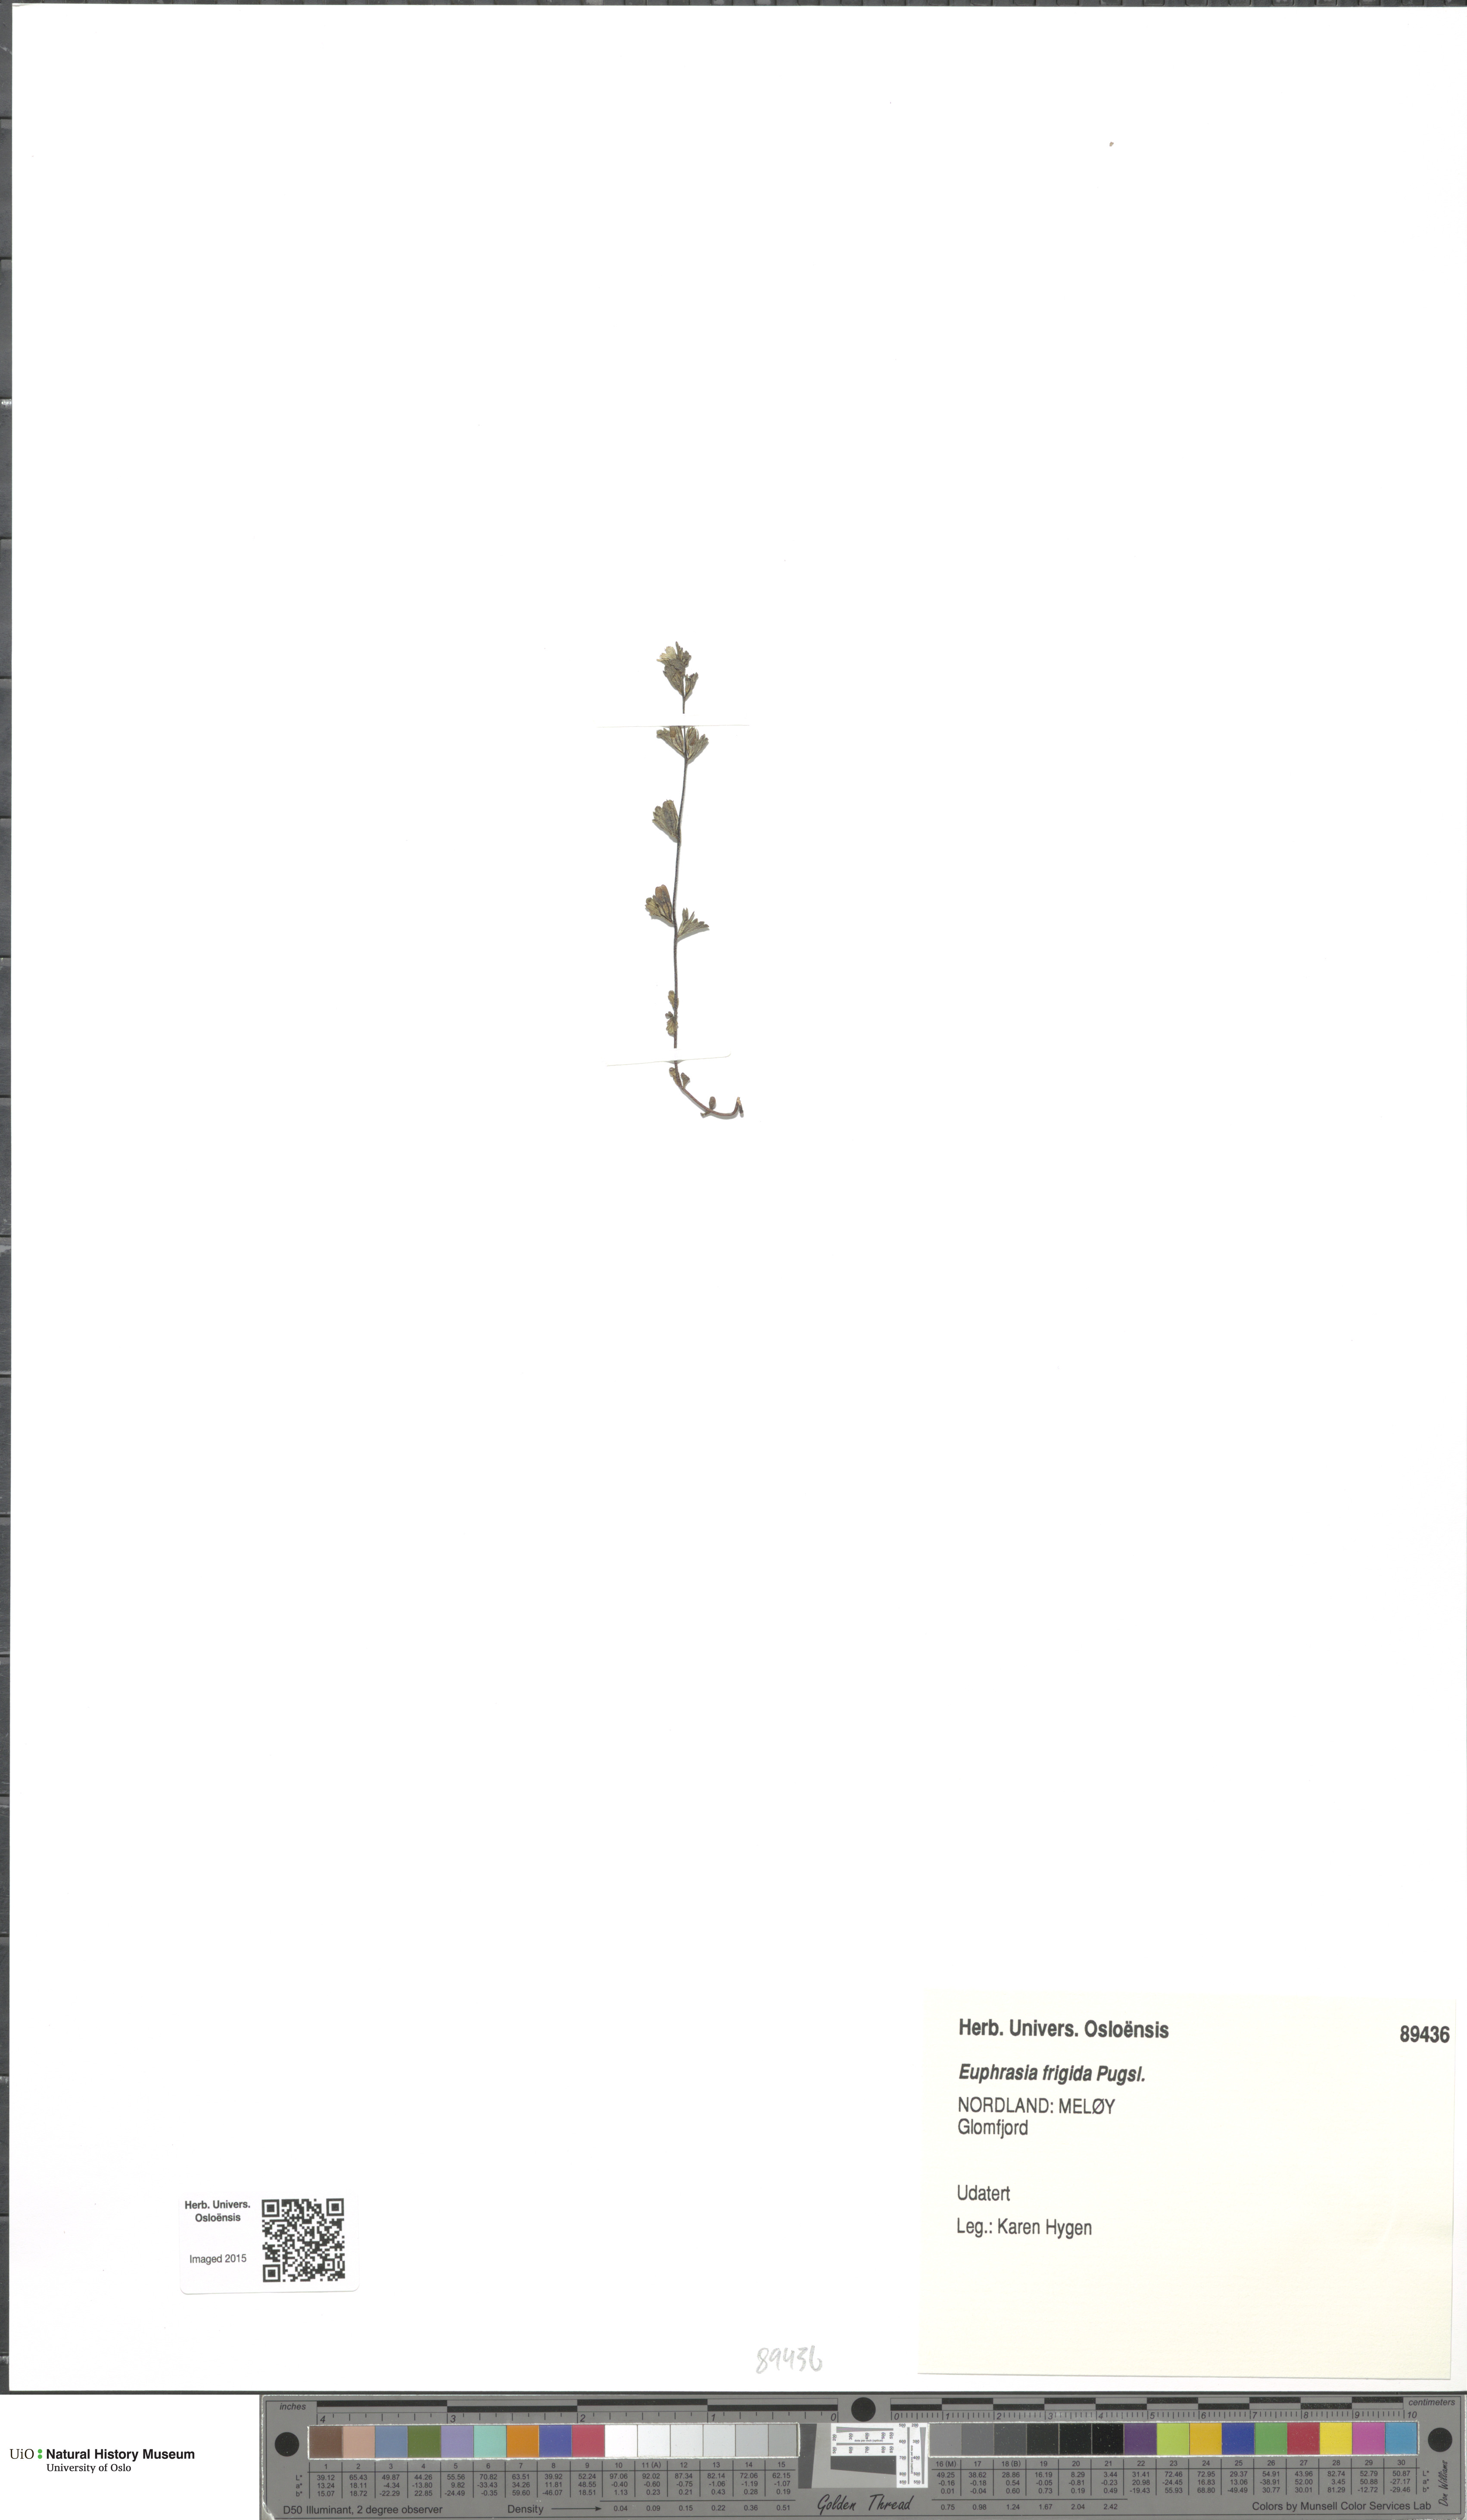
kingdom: Plantae
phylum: Tracheophyta
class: Magnoliopsida
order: Lamiales
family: Orobanchaceae
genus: Euphrasia
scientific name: Euphrasia frigida
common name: An eyebright
